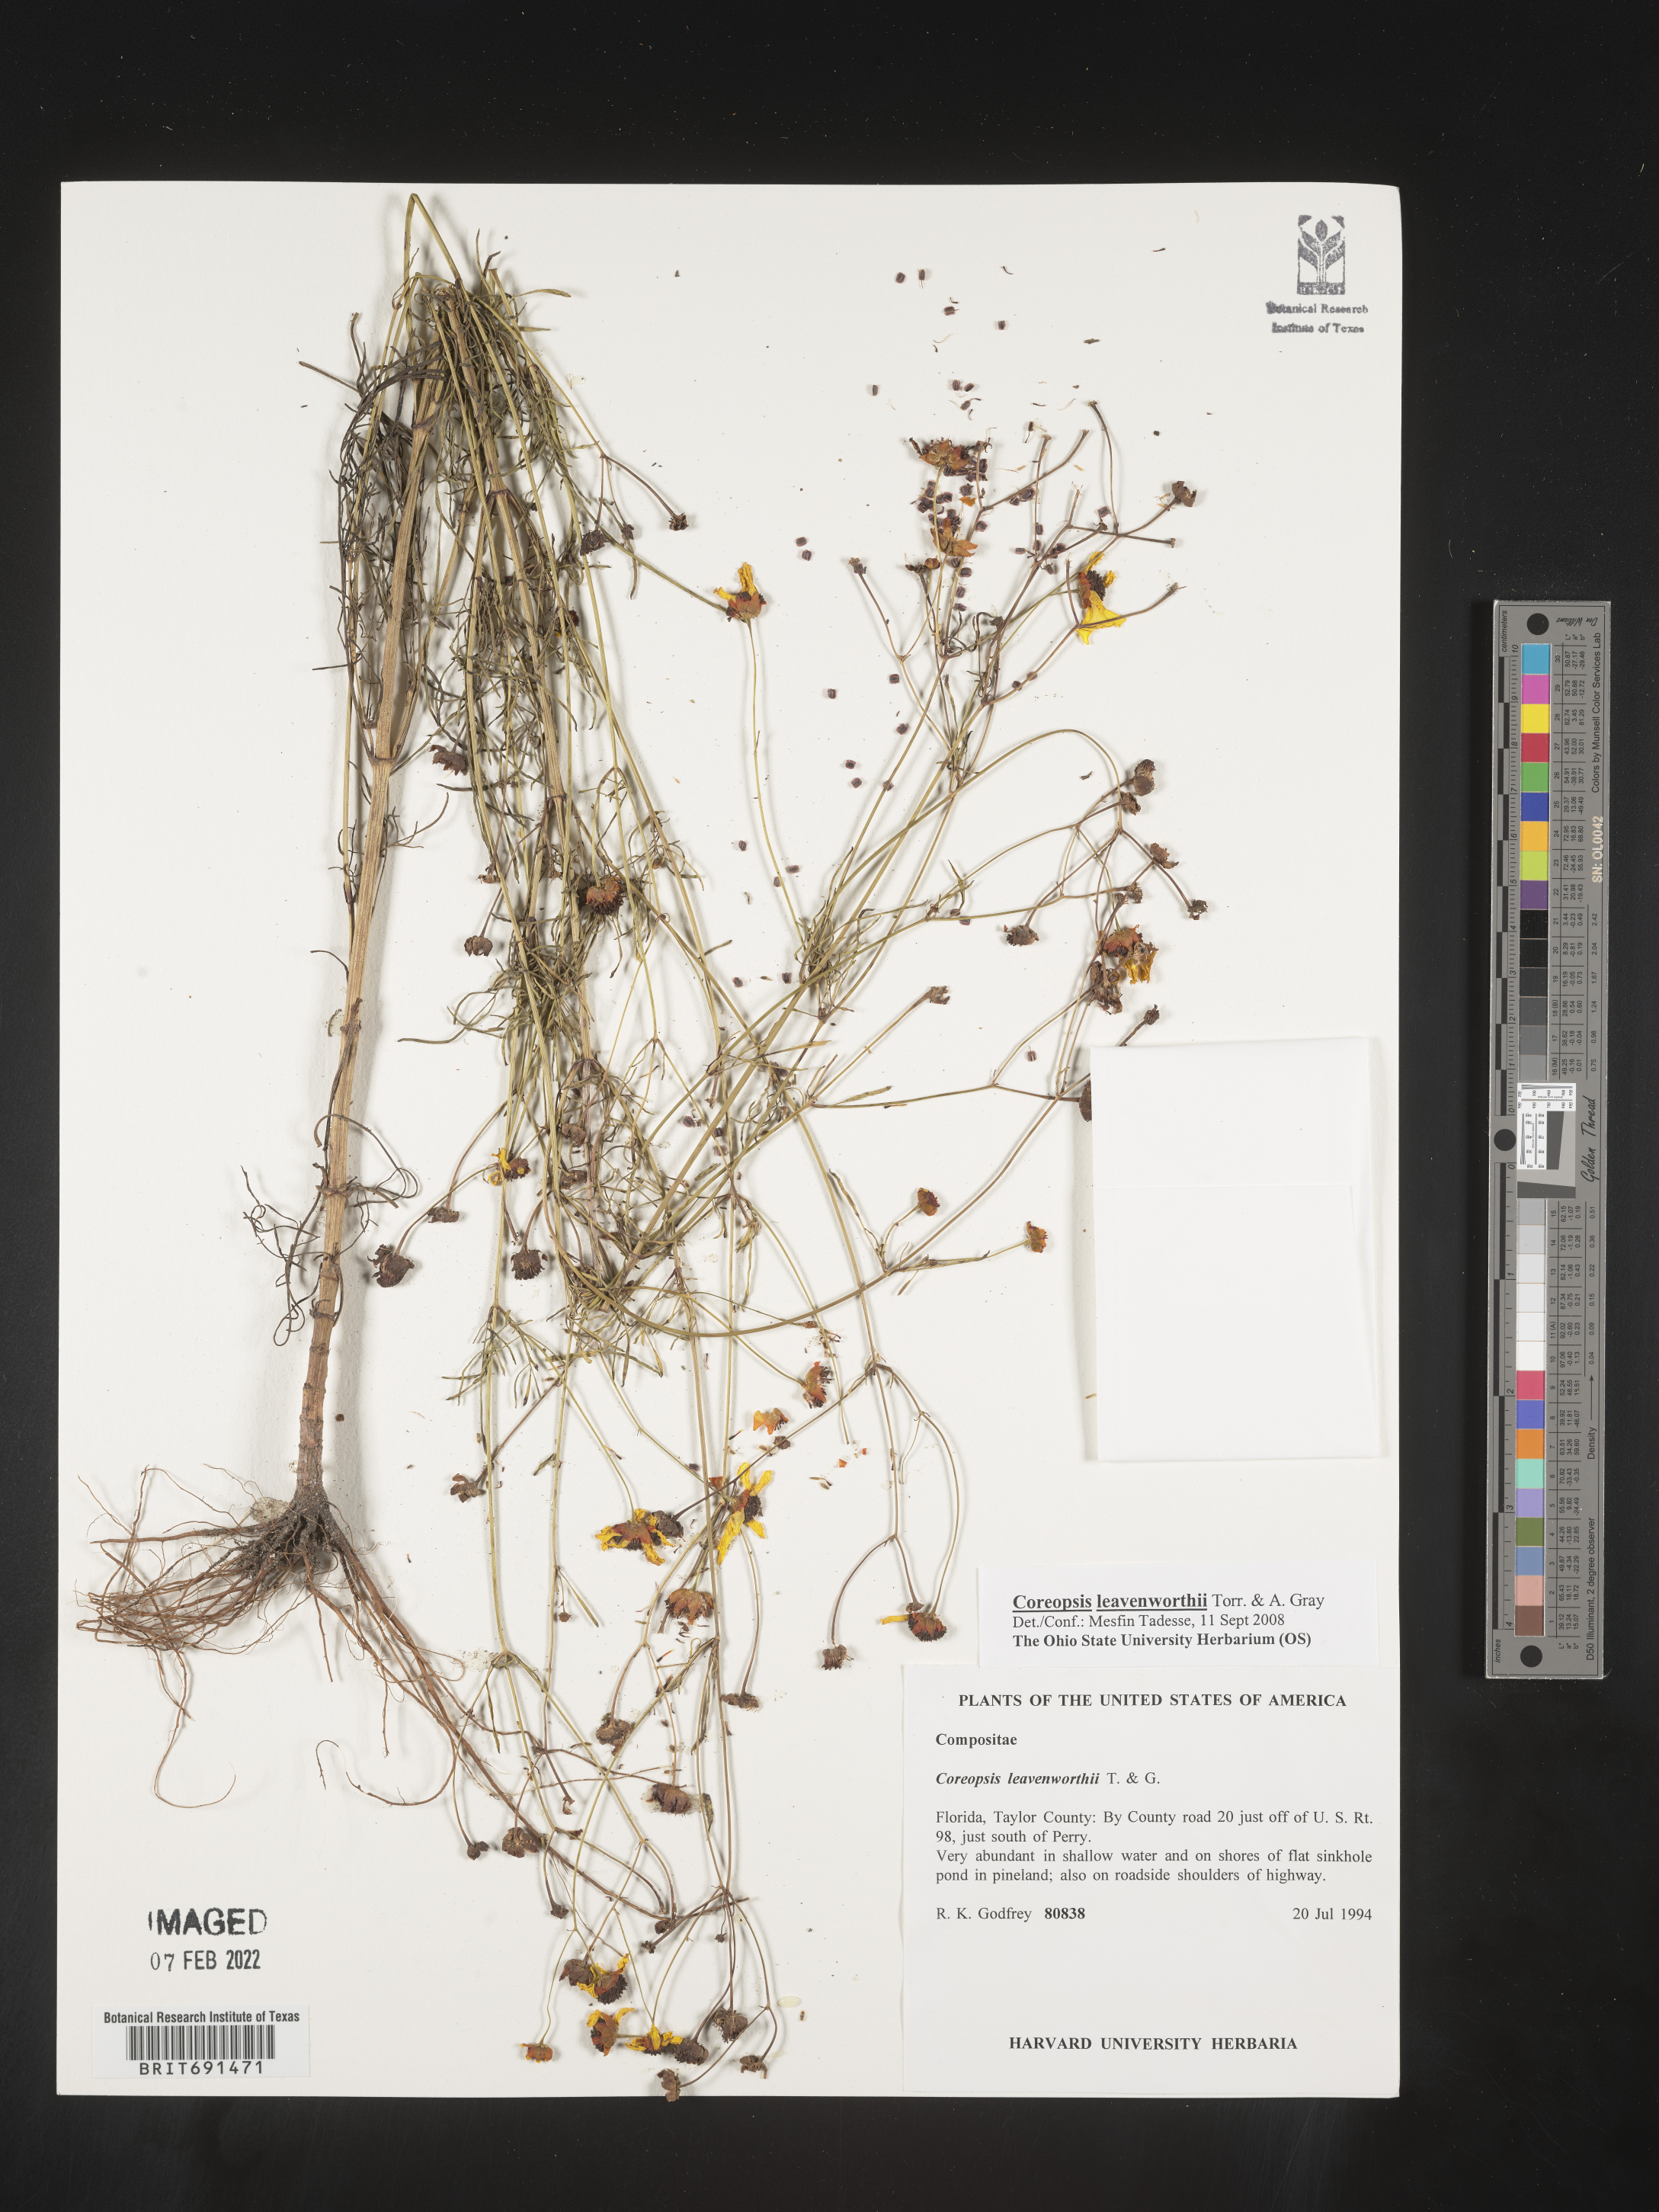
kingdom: Plantae
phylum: Tracheophyta
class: Magnoliopsida
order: Asterales
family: Asteraceae
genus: Coreopsis
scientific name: Coreopsis leavenworthii
